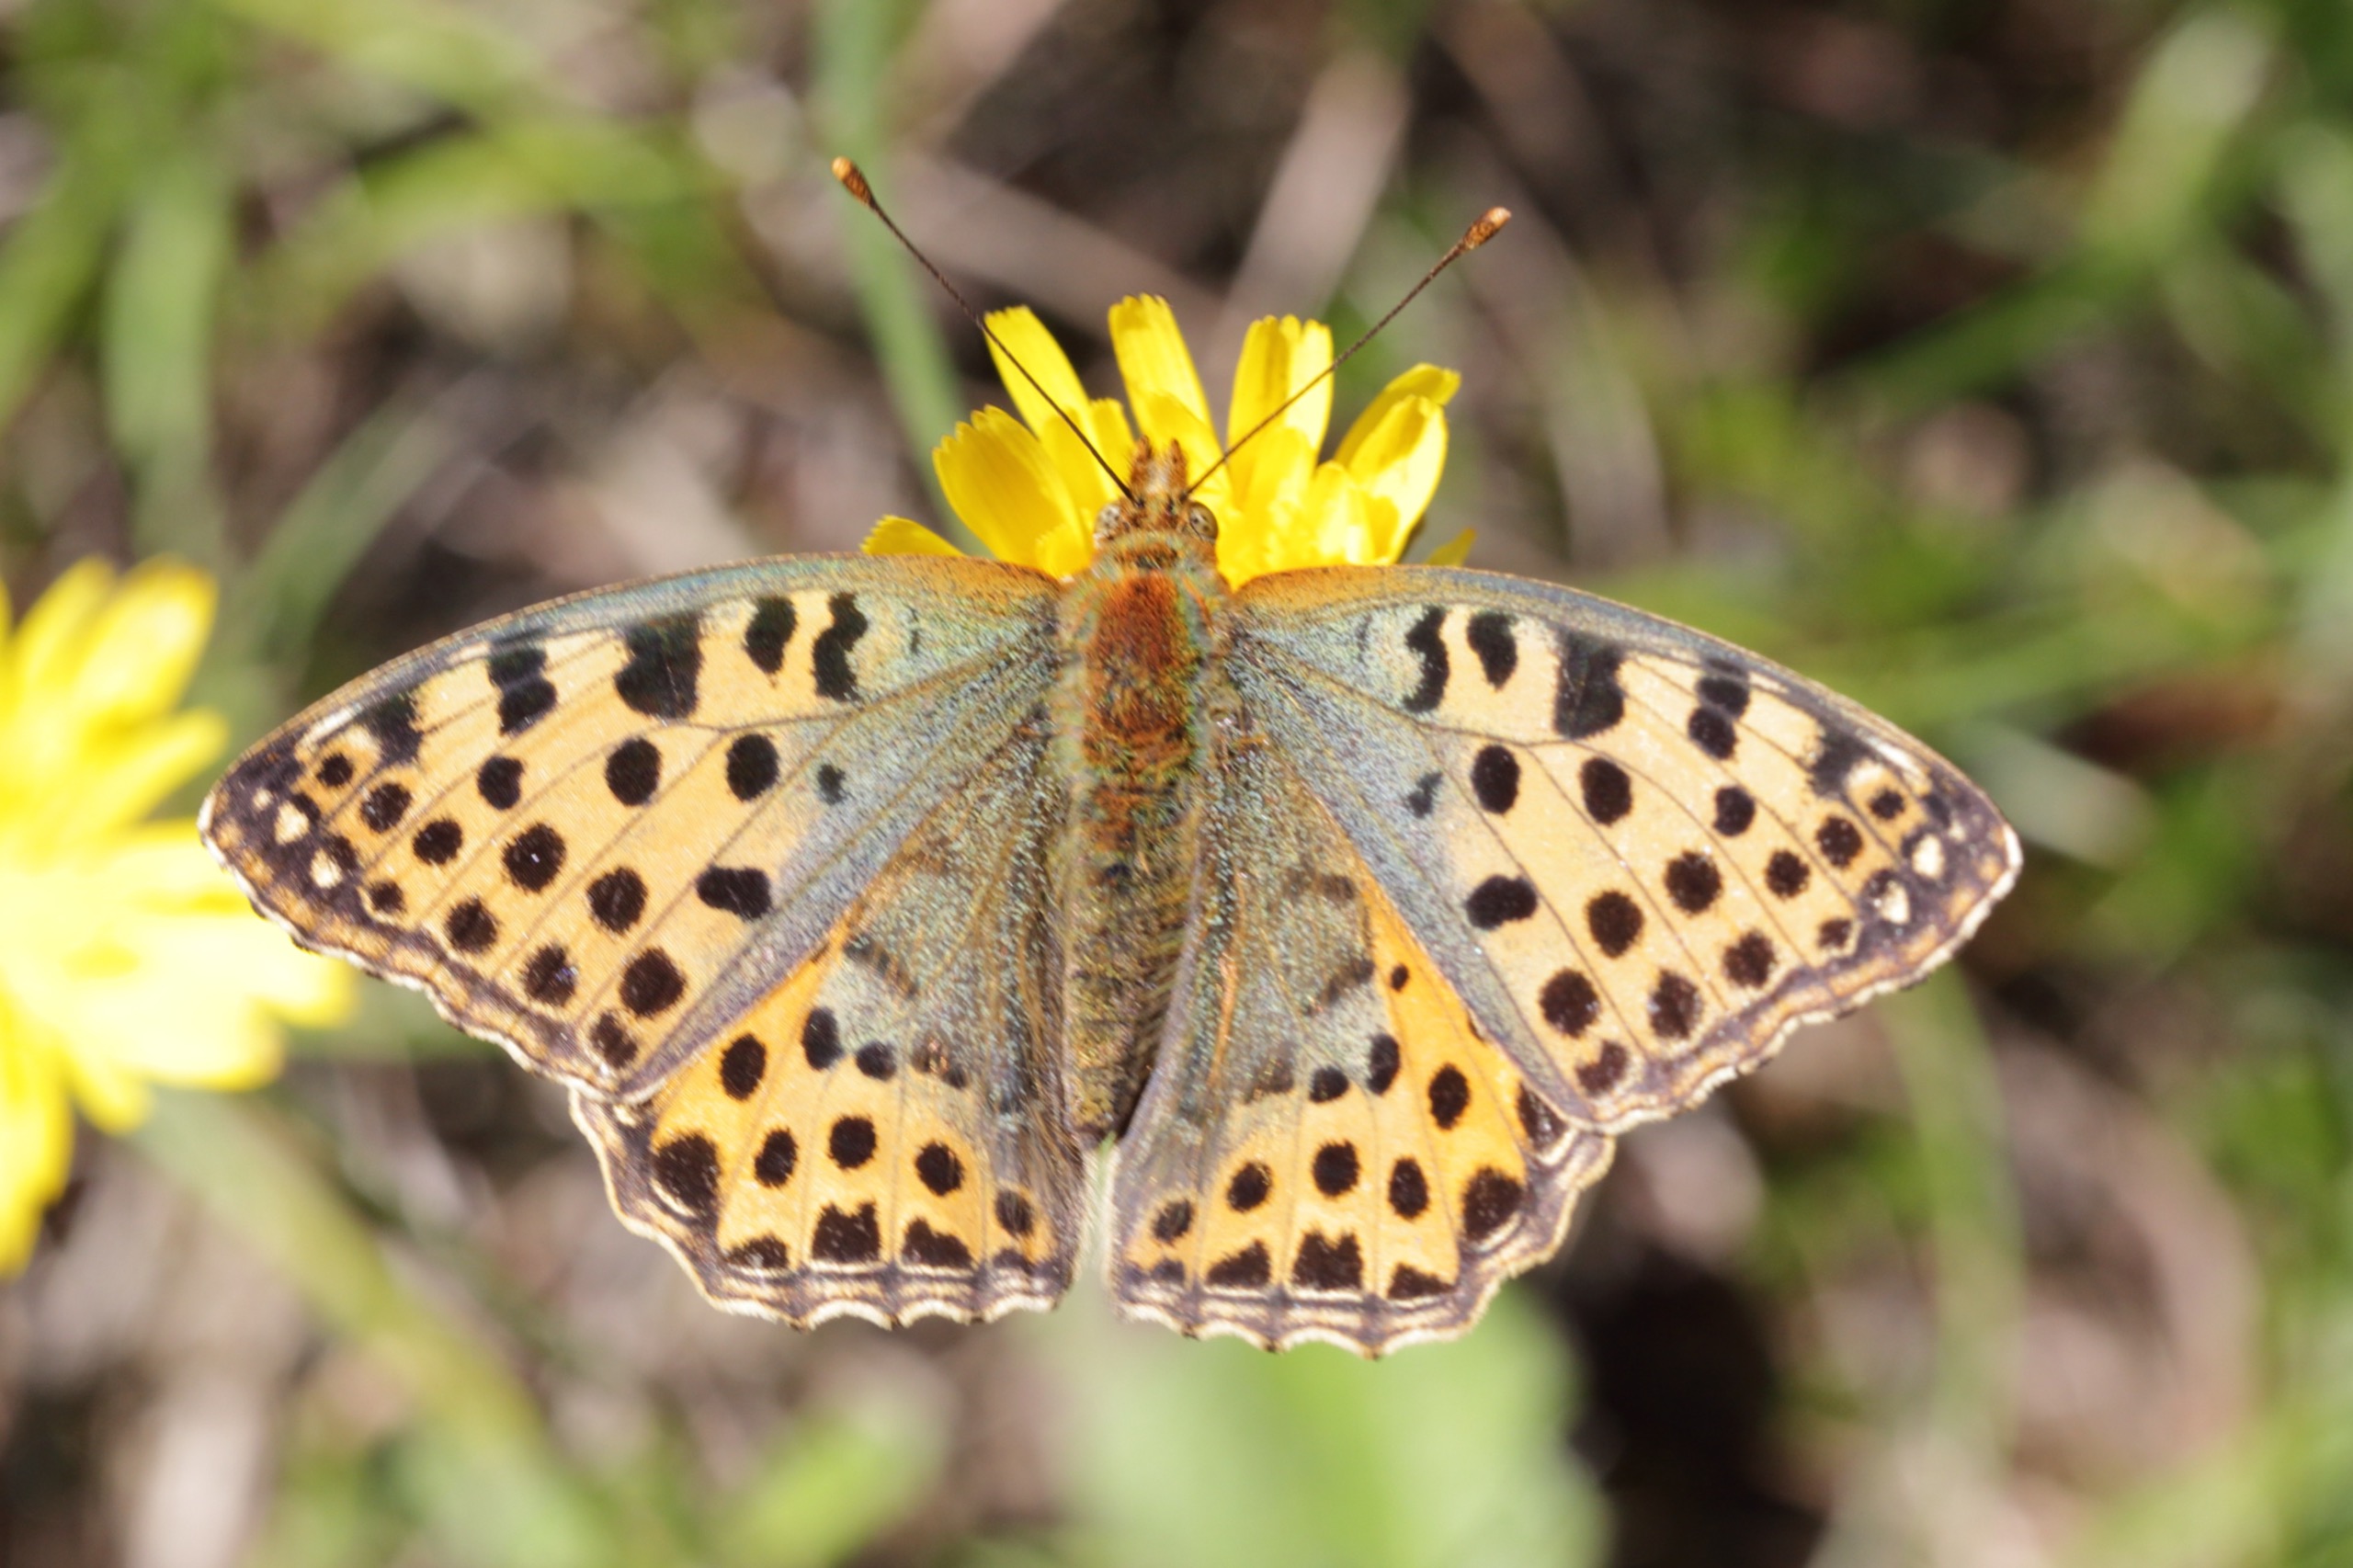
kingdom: Animalia
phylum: Arthropoda
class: Insecta
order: Lepidoptera
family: Nymphalidae
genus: Issoria
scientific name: Issoria lathonia
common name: Storplettet perlemorsommerfugl
